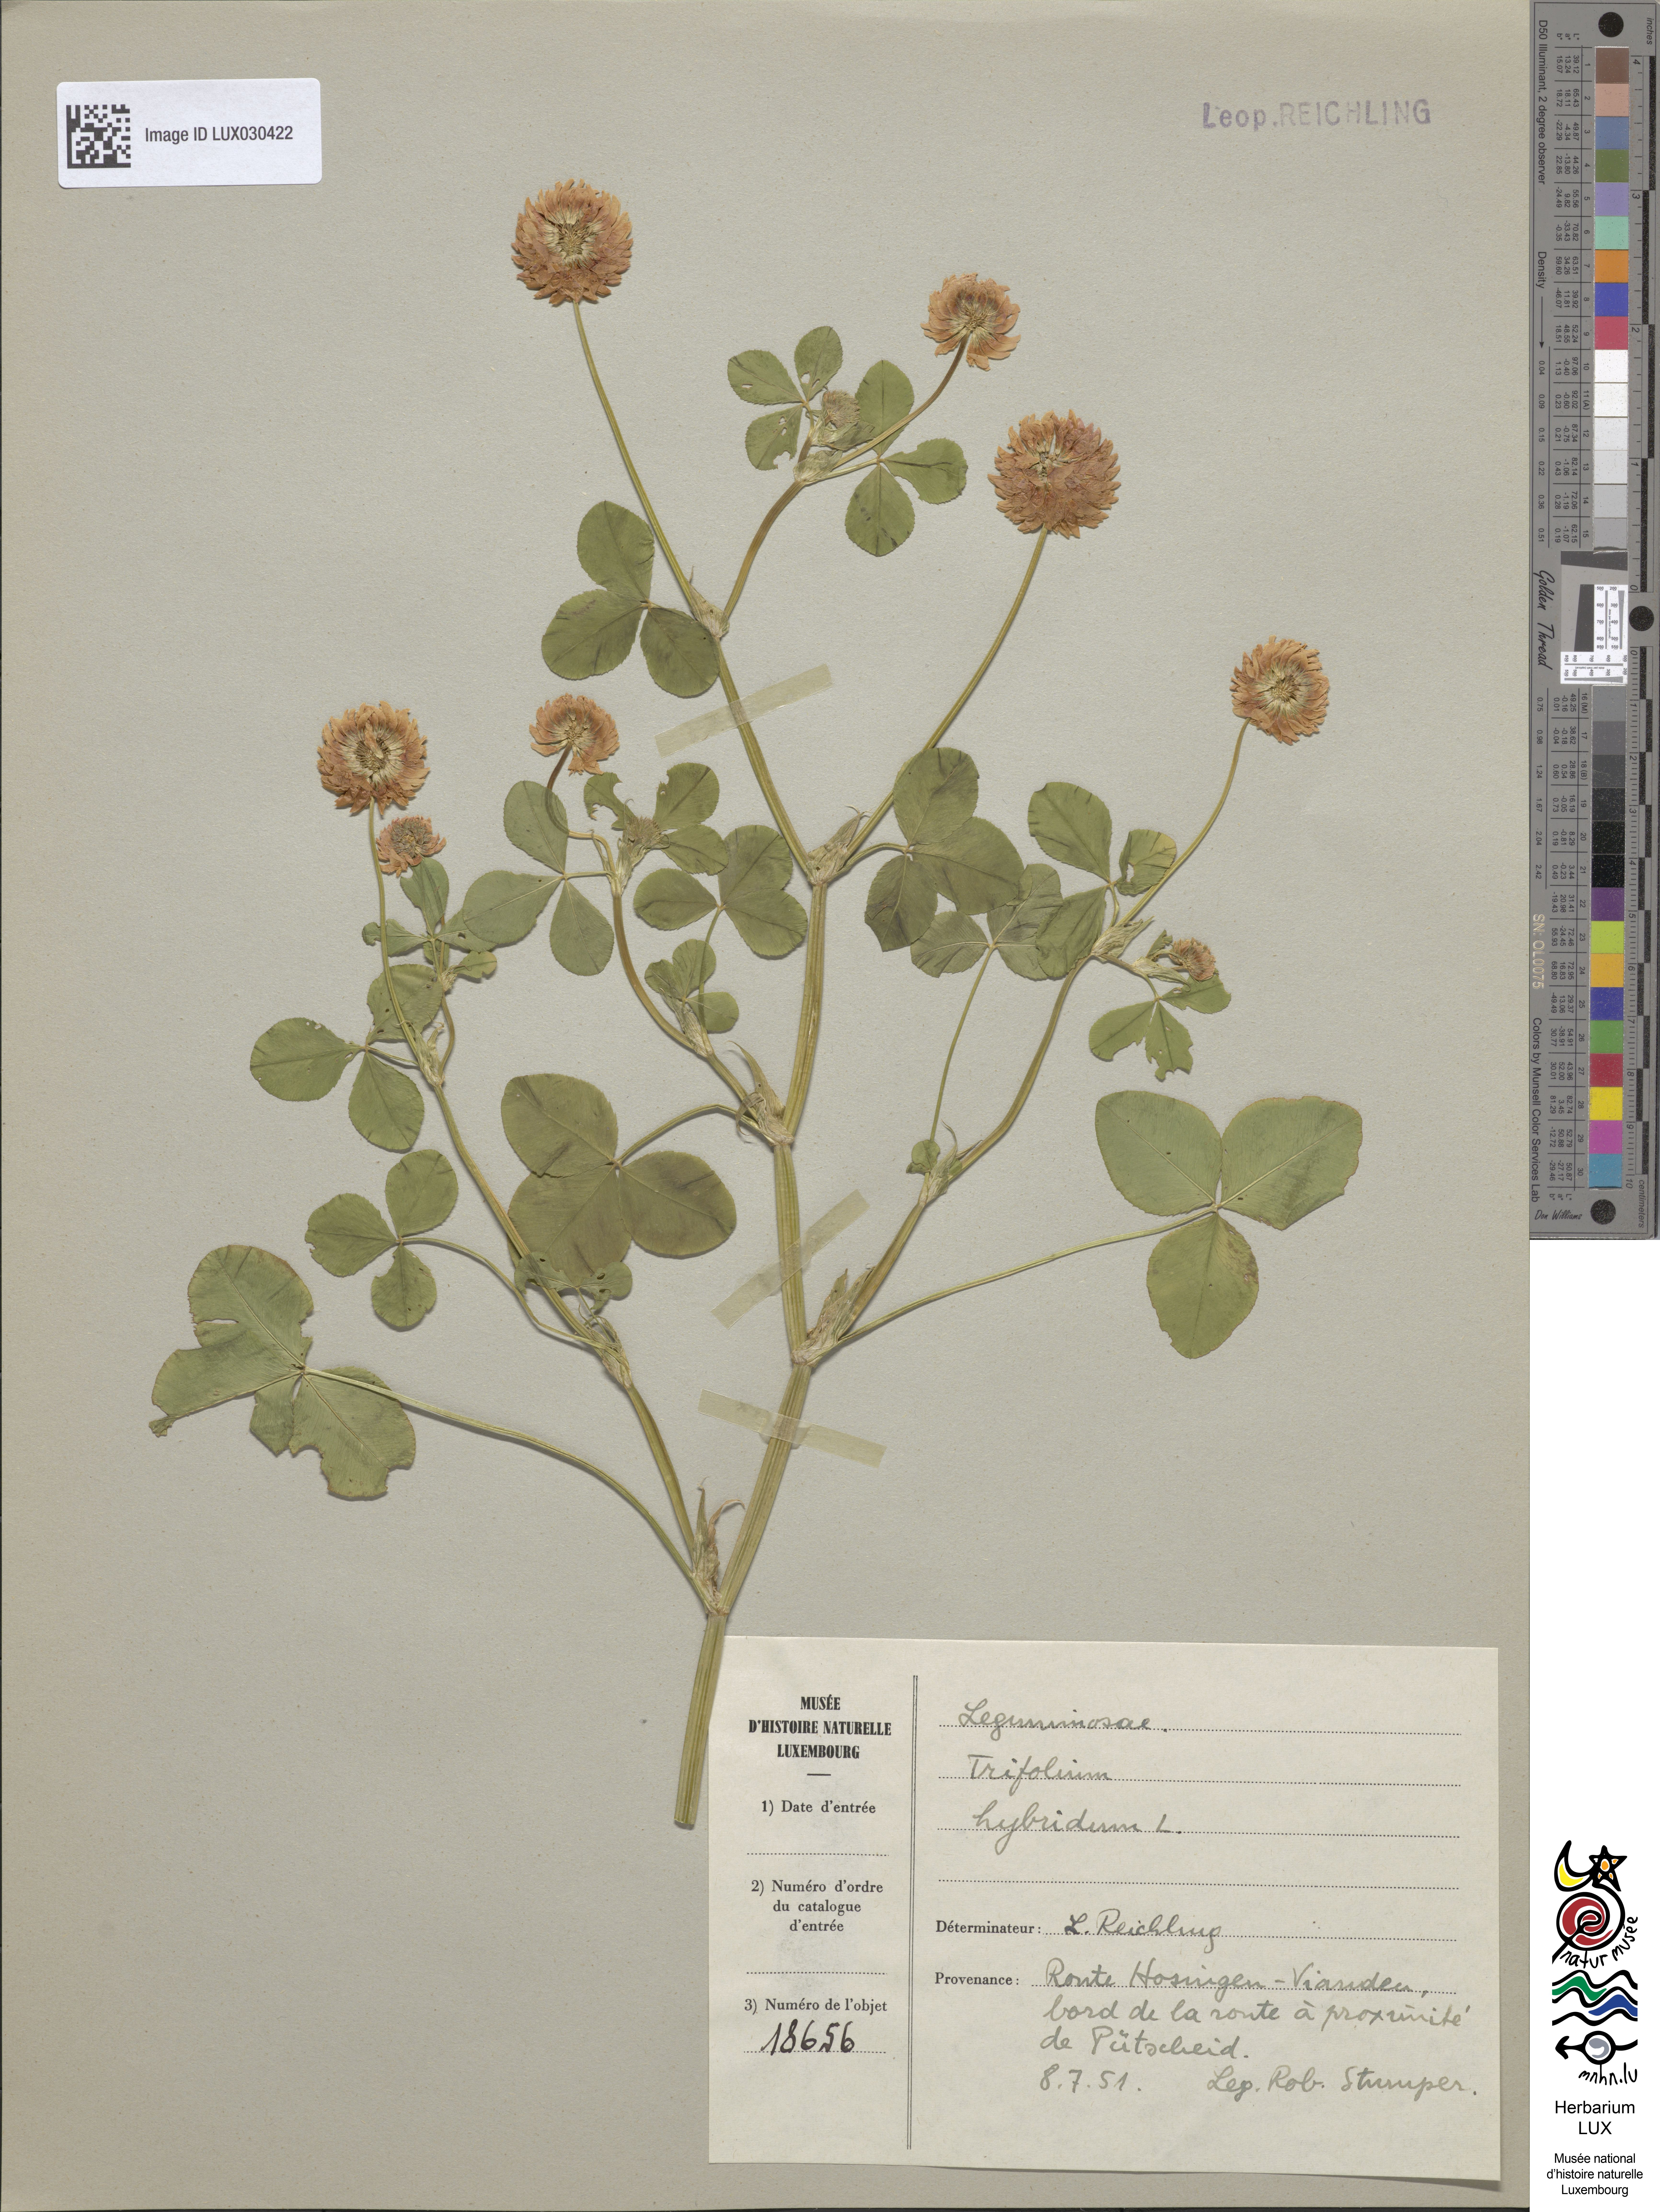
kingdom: Plantae
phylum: Tracheophyta
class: Magnoliopsida
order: Fabales
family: Fabaceae
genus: Trifolium
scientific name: Trifolium hybridum
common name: Alsike clover
